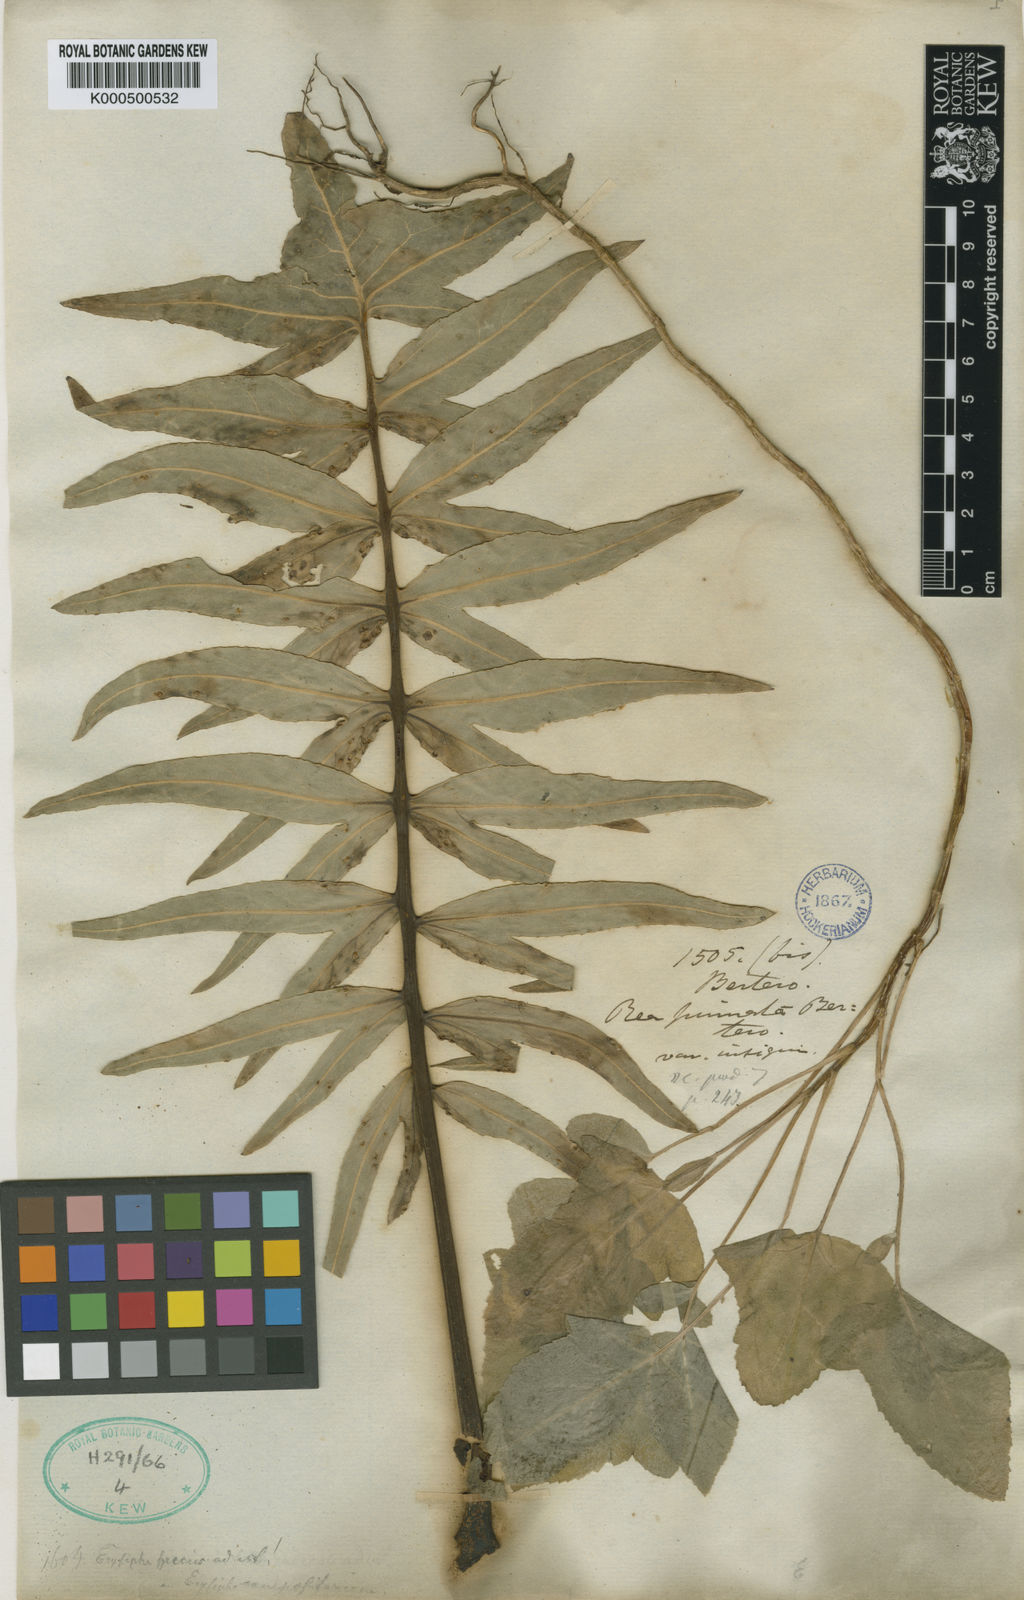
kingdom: Plantae
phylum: Tracheophyta
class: Magnoliopsida
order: Asterales
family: Asteraceae
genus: Sonchus
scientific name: Sonchus phoeniciformis
